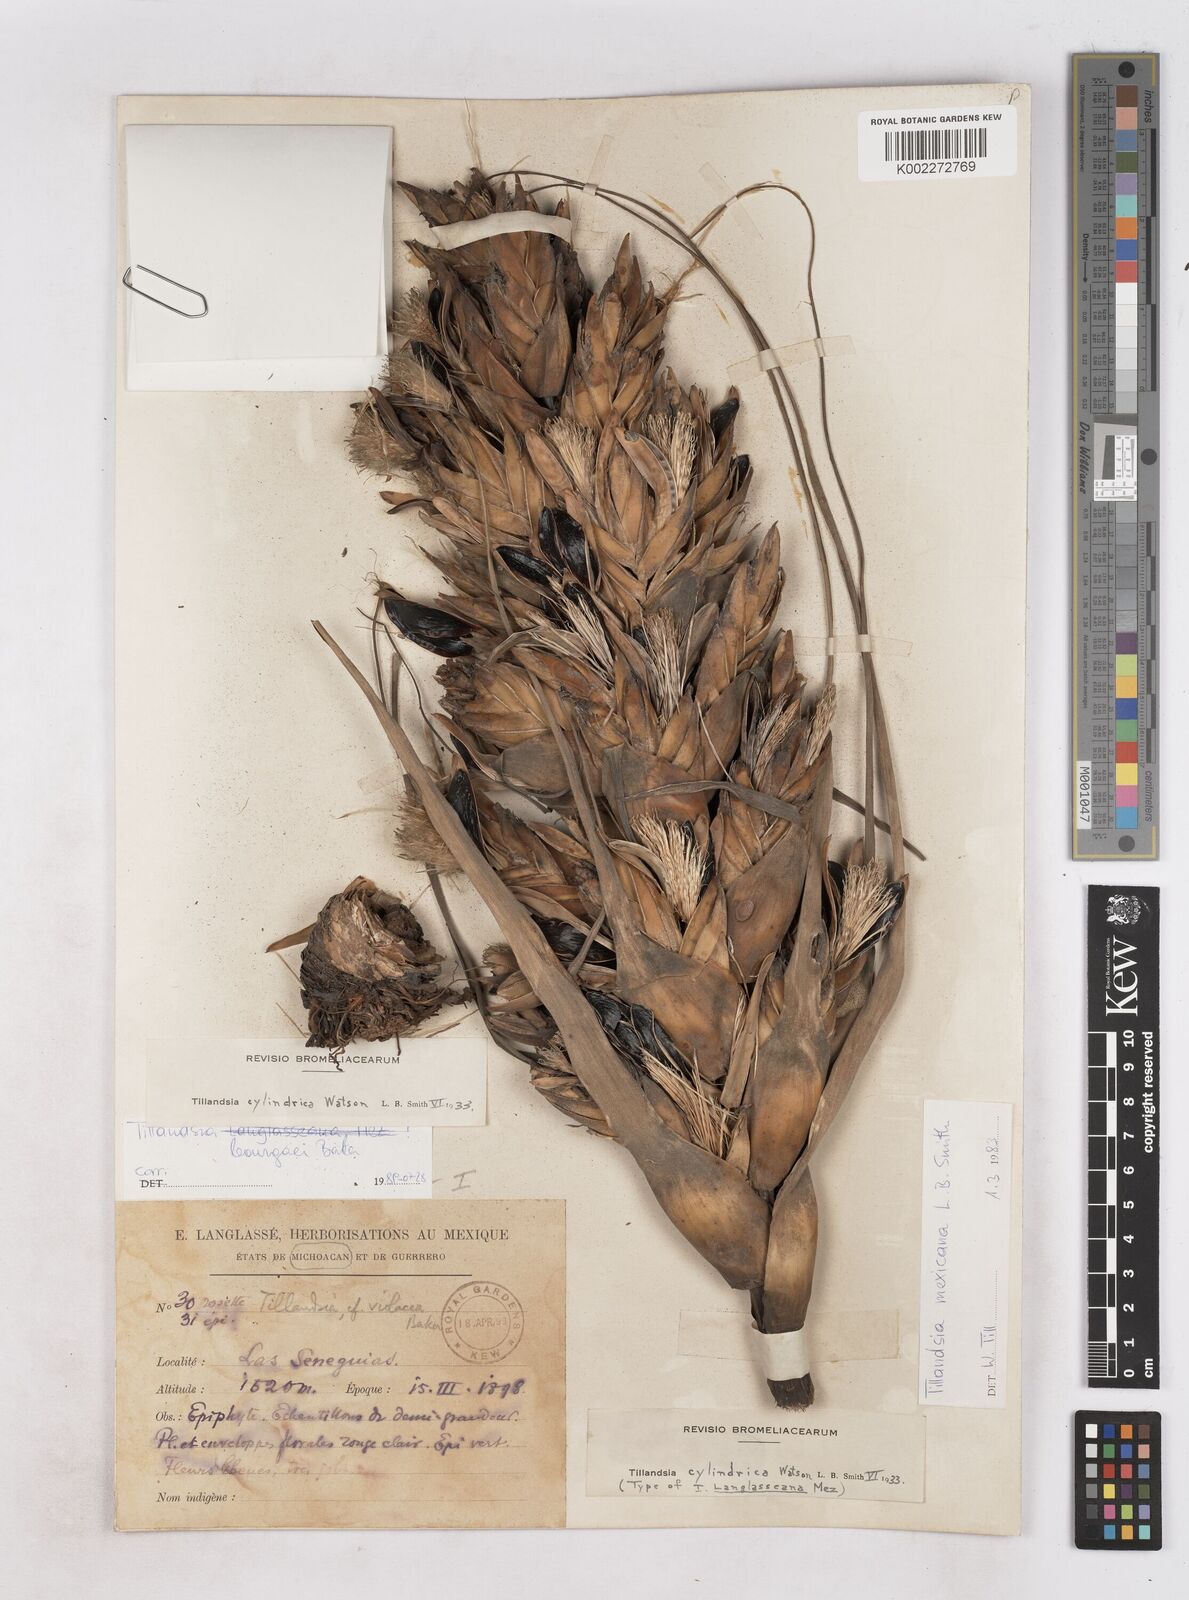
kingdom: Plantae
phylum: Tracheophyta
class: Liliopsida
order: Poales
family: Bromeliaceae
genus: Tillandsia
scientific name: Tillandsia bourgaei
